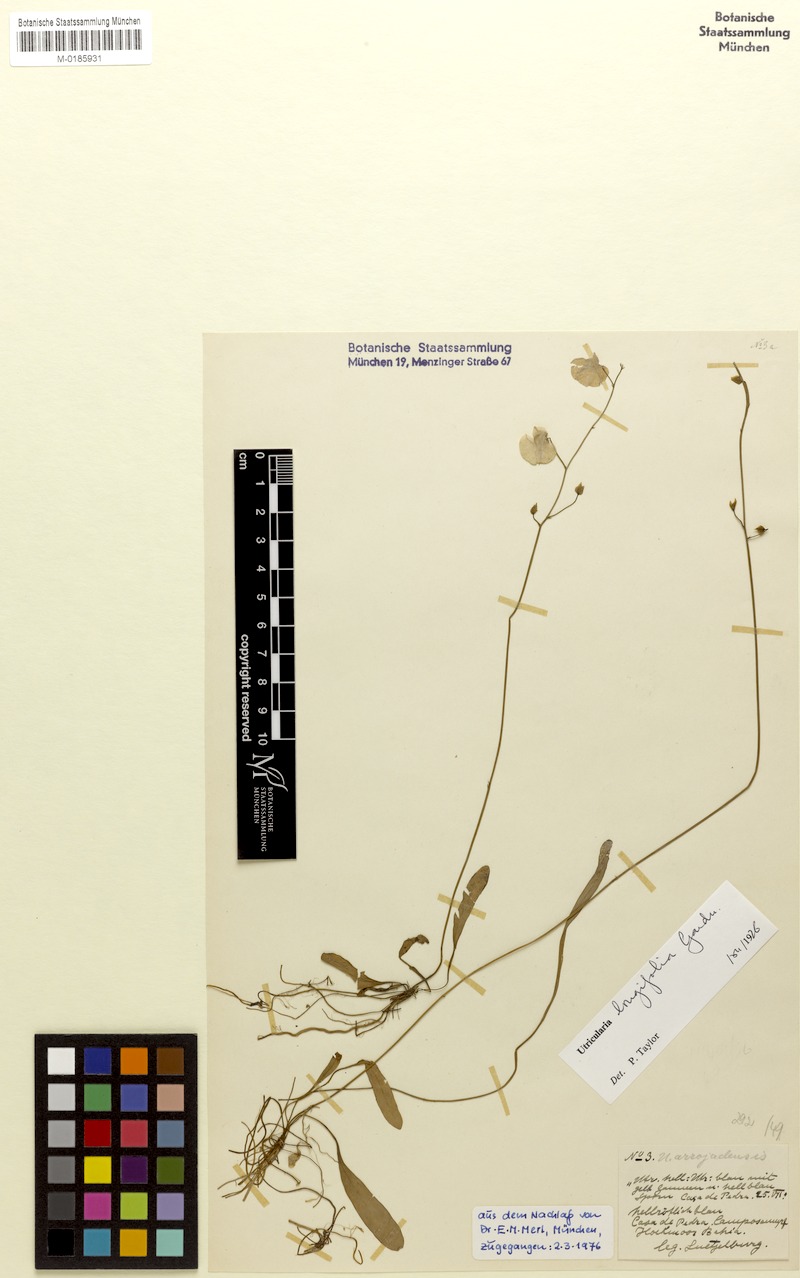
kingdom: Plantae
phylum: Tracheophyta
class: Magnoliopsida
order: Lamiales
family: Lentibulariaceae
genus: Utricularia
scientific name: Utricularia longifolia
